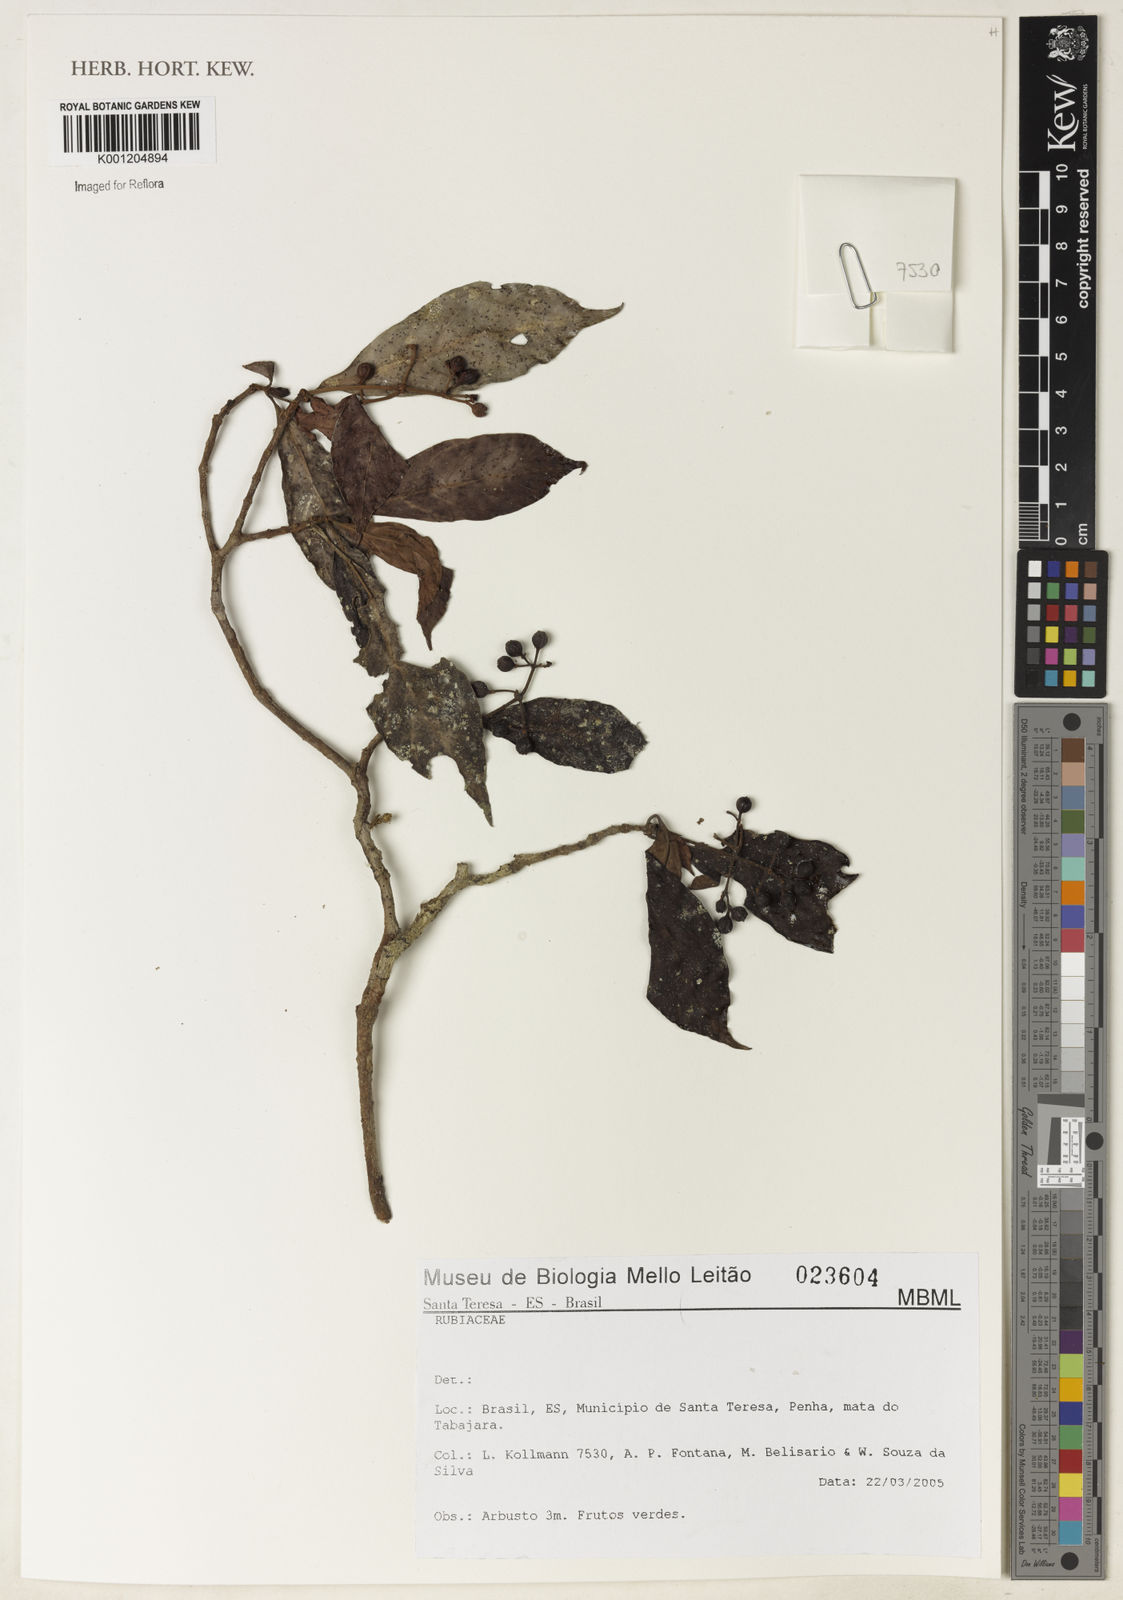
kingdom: Plantae
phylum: Tracheophyta
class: Magnoliopsida
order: Gentianales
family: Rubiaceae
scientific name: Rubiaceae
